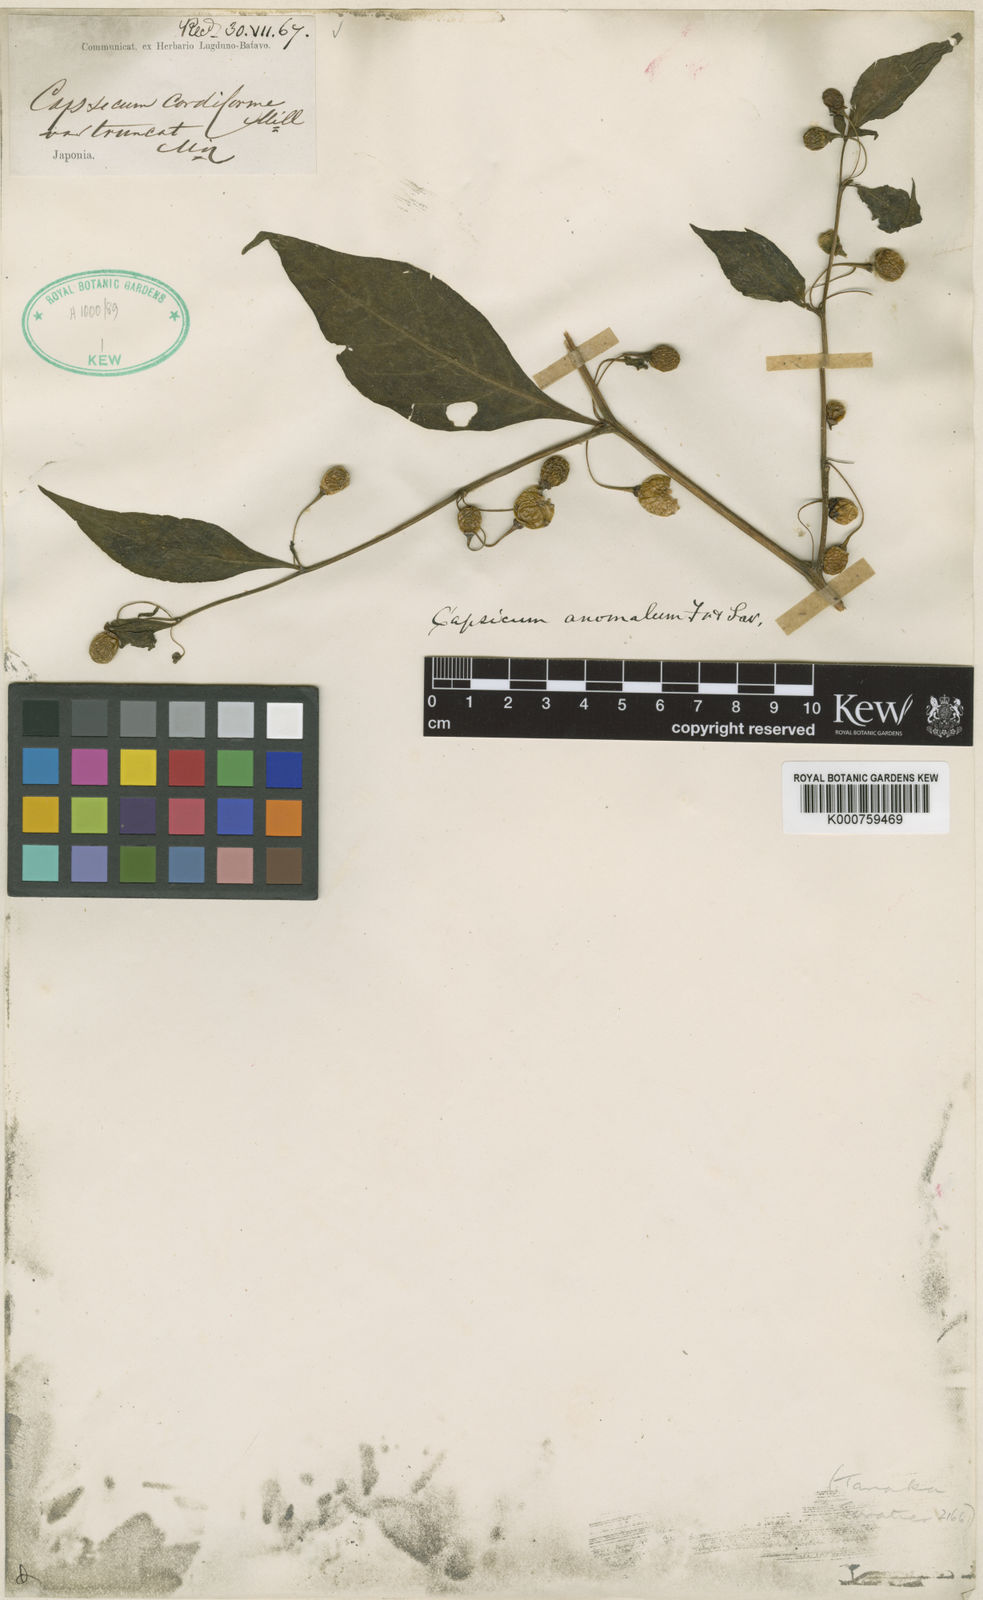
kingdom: Plantae
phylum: Tracheophyta
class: Magnoliopsida
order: Solanales
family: Solanaceae
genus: Capsicum
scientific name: Capsicum annuum
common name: Sweet pepper
